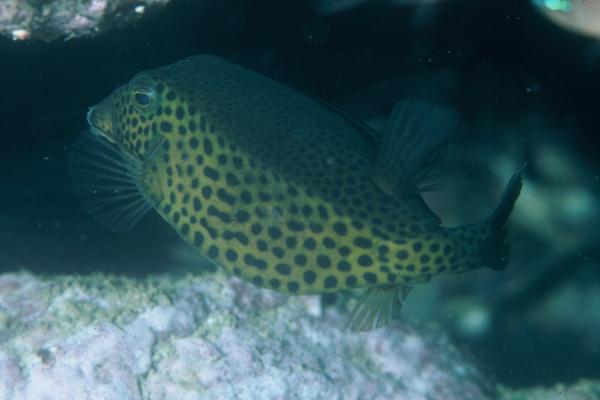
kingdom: Animalia
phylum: Chordata
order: Tetraodontiformes
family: Ostraciidae
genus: Ostracion
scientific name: Ostracion cyanurus
